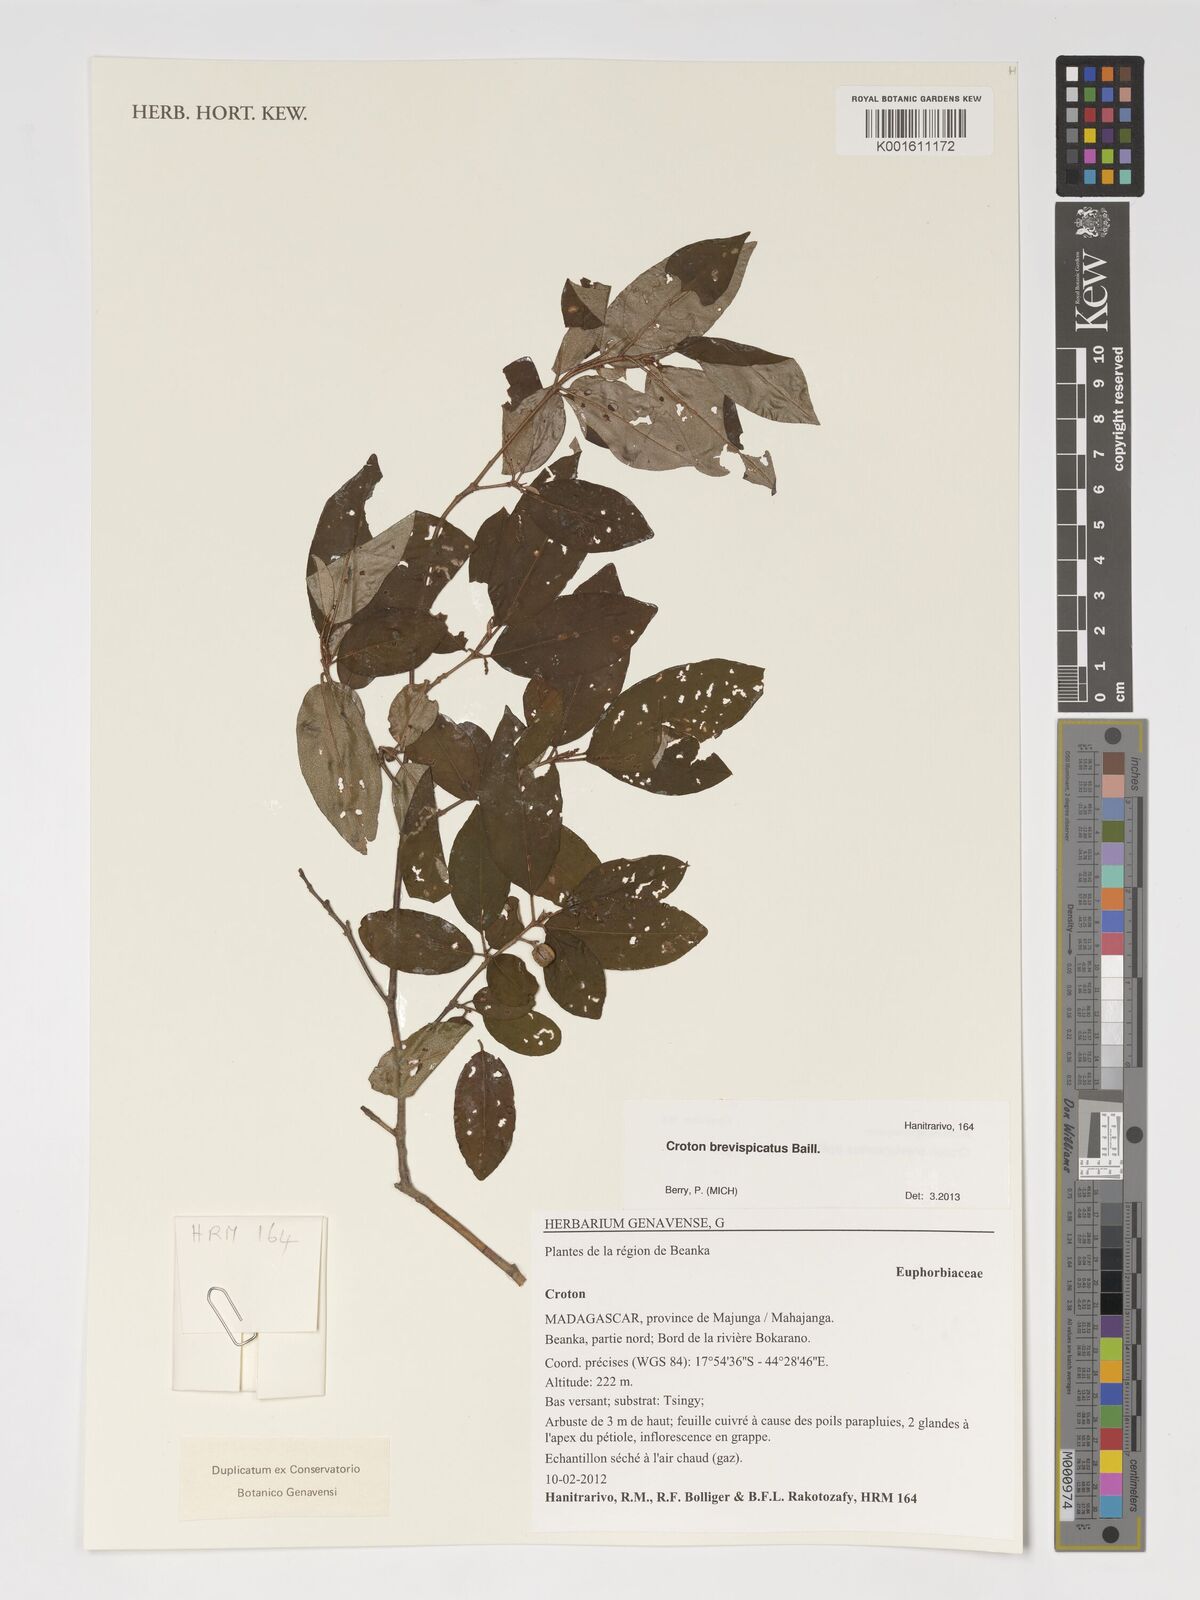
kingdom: Plantae
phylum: Tracheophyta
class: Magnoliopsida
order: Malpighiales
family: Euphorbiaceae
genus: Croton
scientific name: Croton brevispicatus
